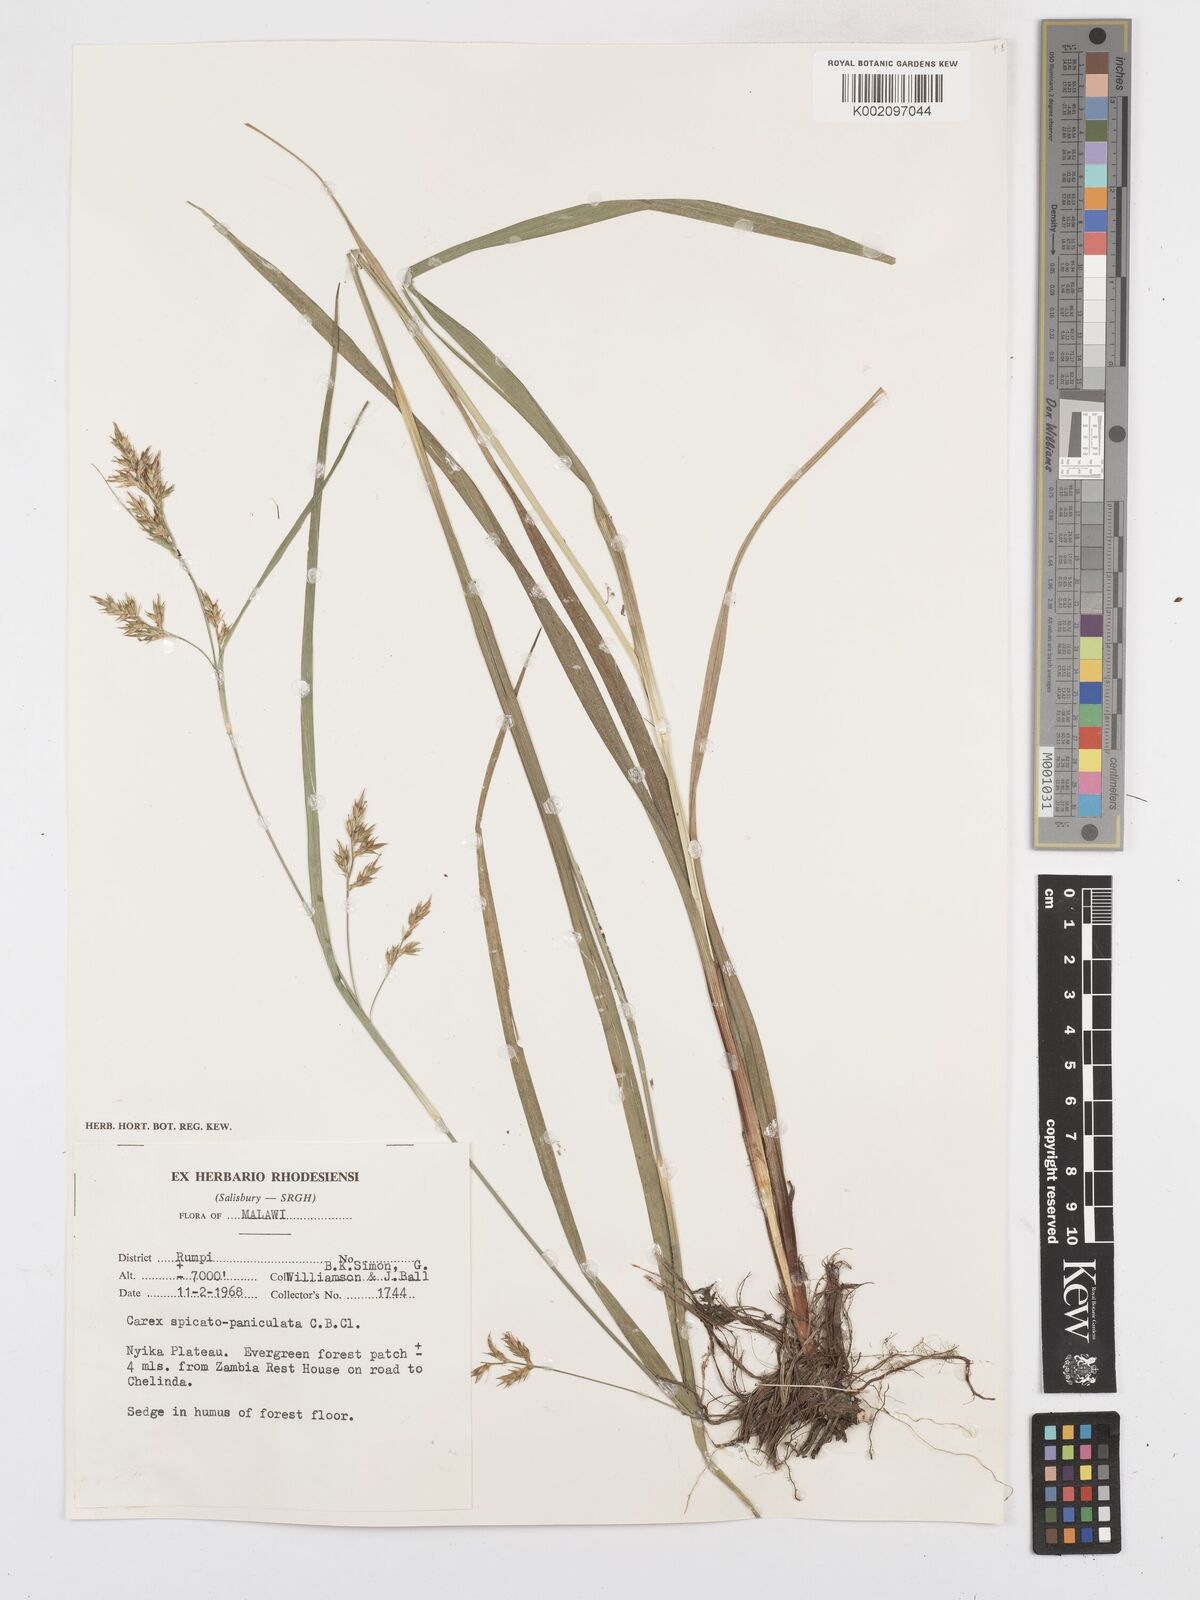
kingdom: Plantae
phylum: Tracheophyta
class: Liliopsida
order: Poales
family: Cyperaceae
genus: Carex
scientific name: Carex spicatopaniculata
